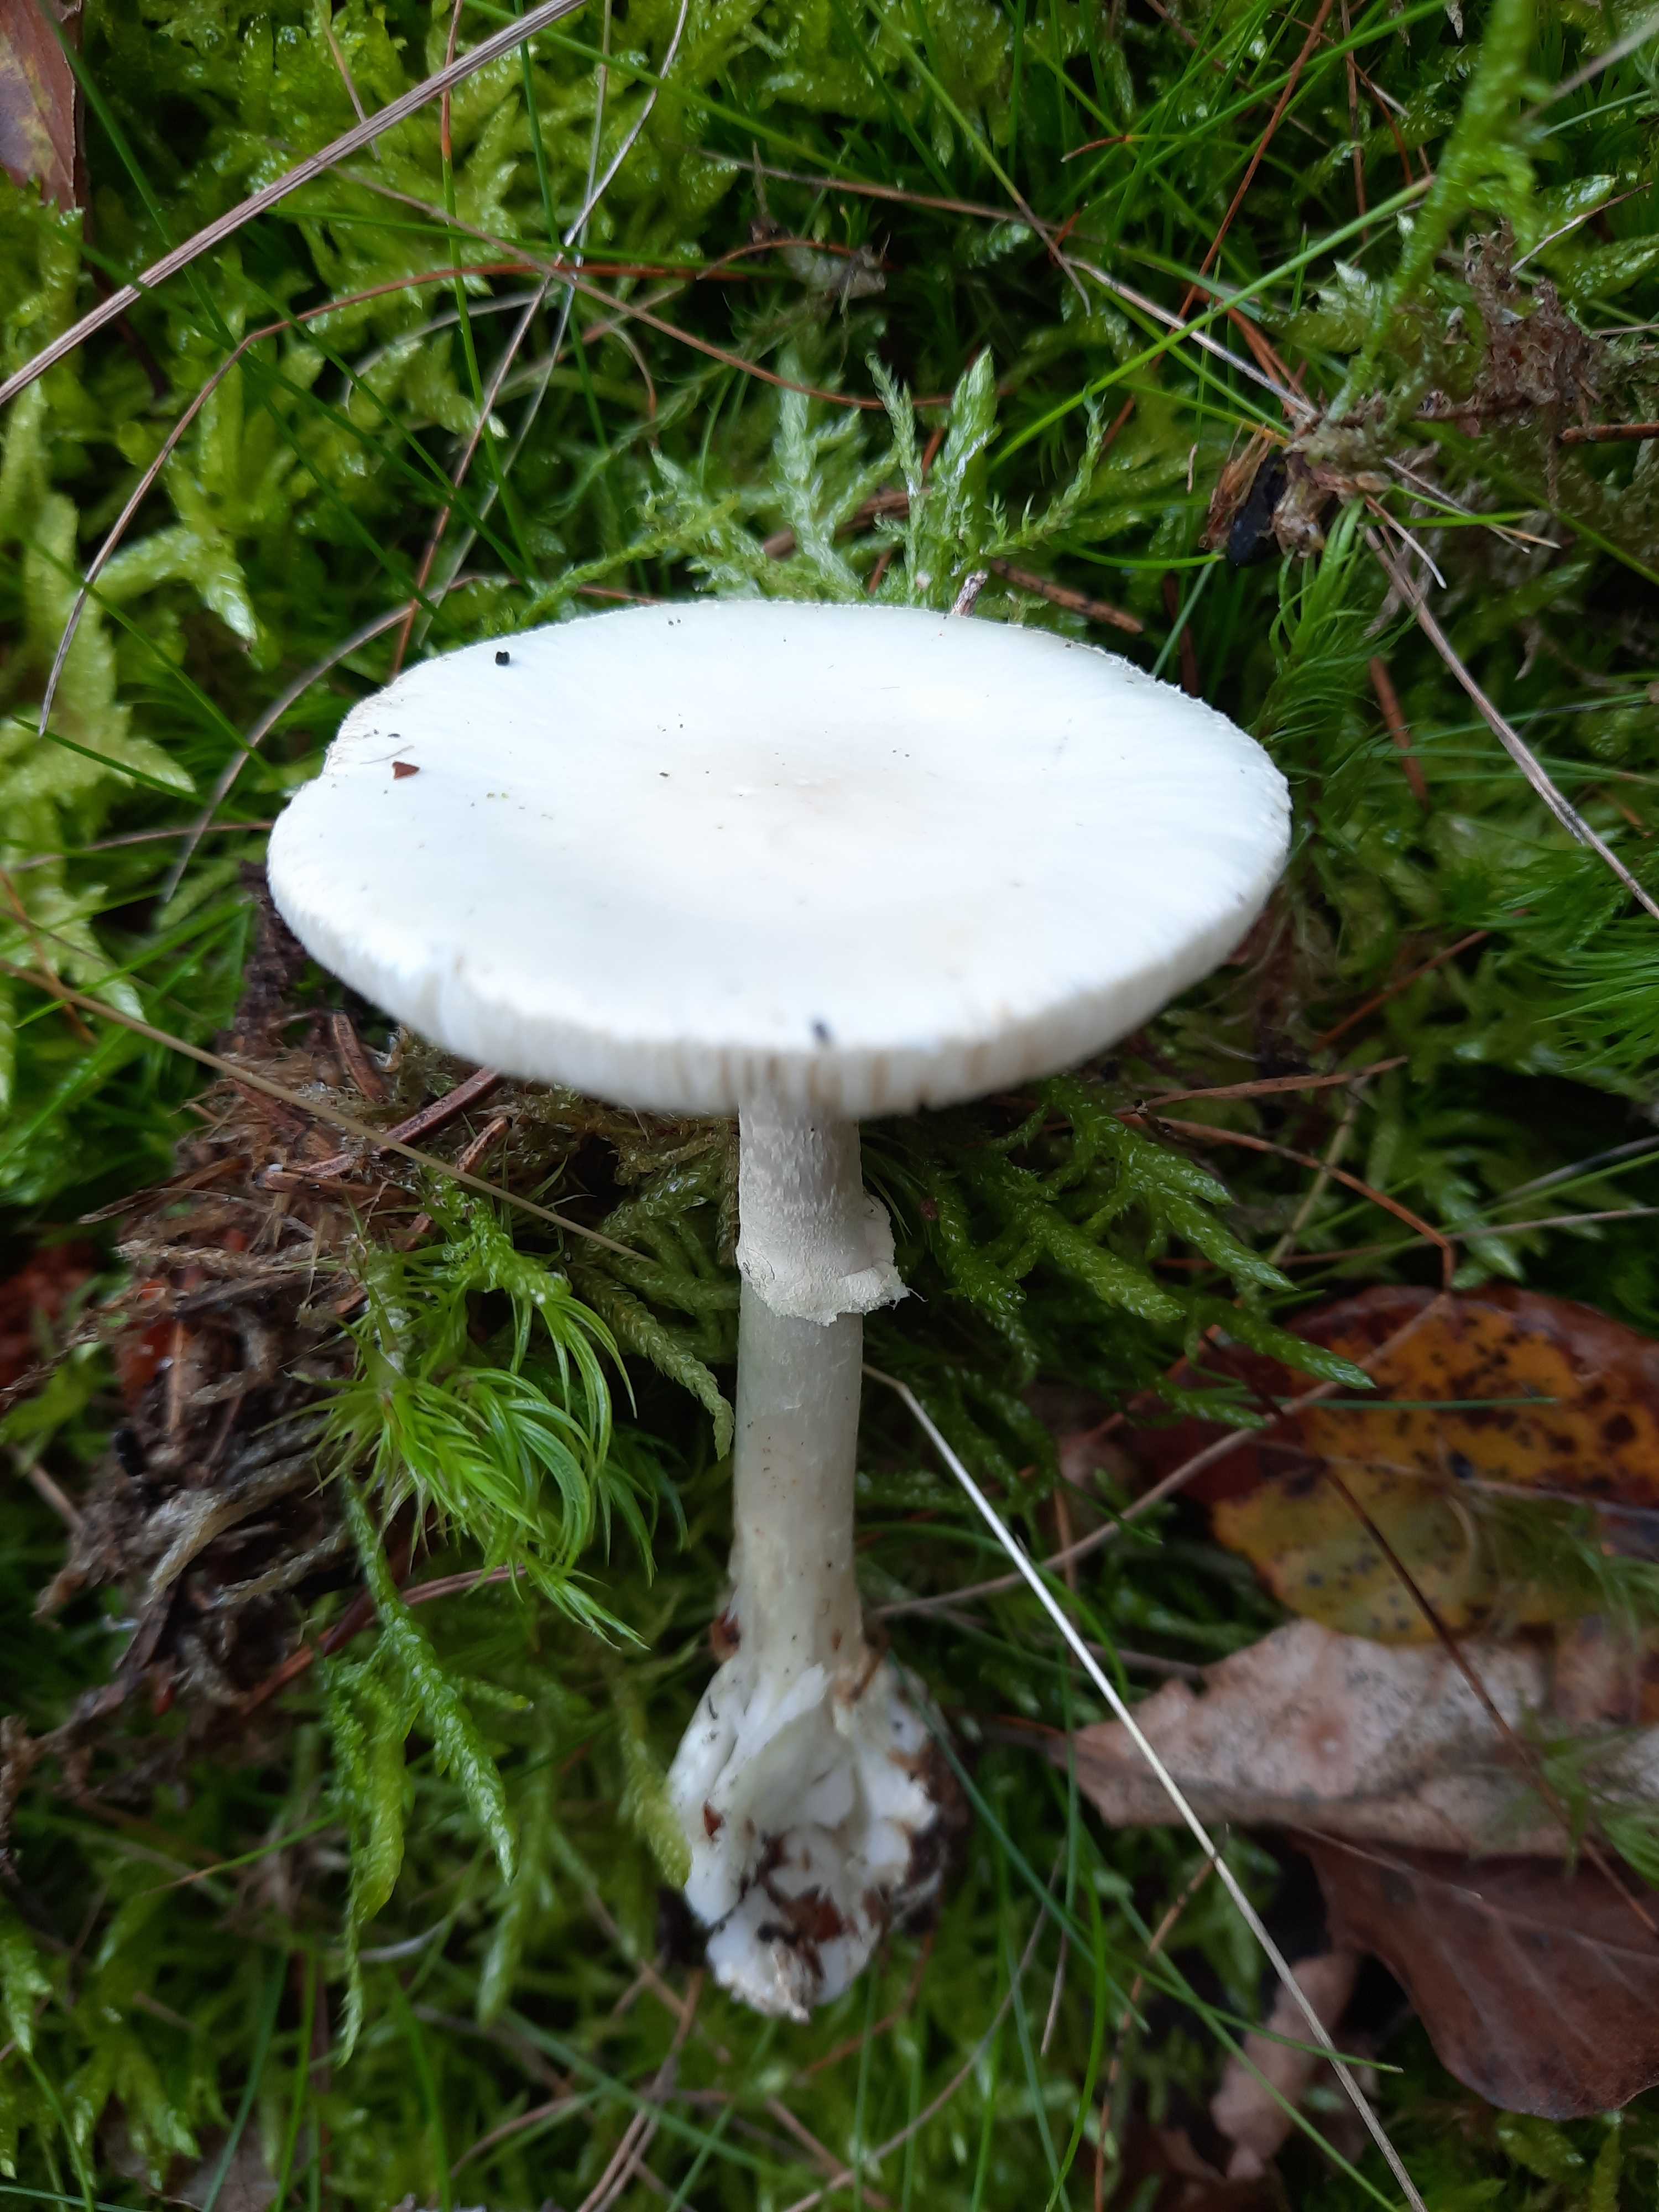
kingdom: Fungi
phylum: Basidiomycota
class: Agaricomycetes
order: Agaricales
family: Amanitaceae
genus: Amanita
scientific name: Amanita citrina
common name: False death-cap
